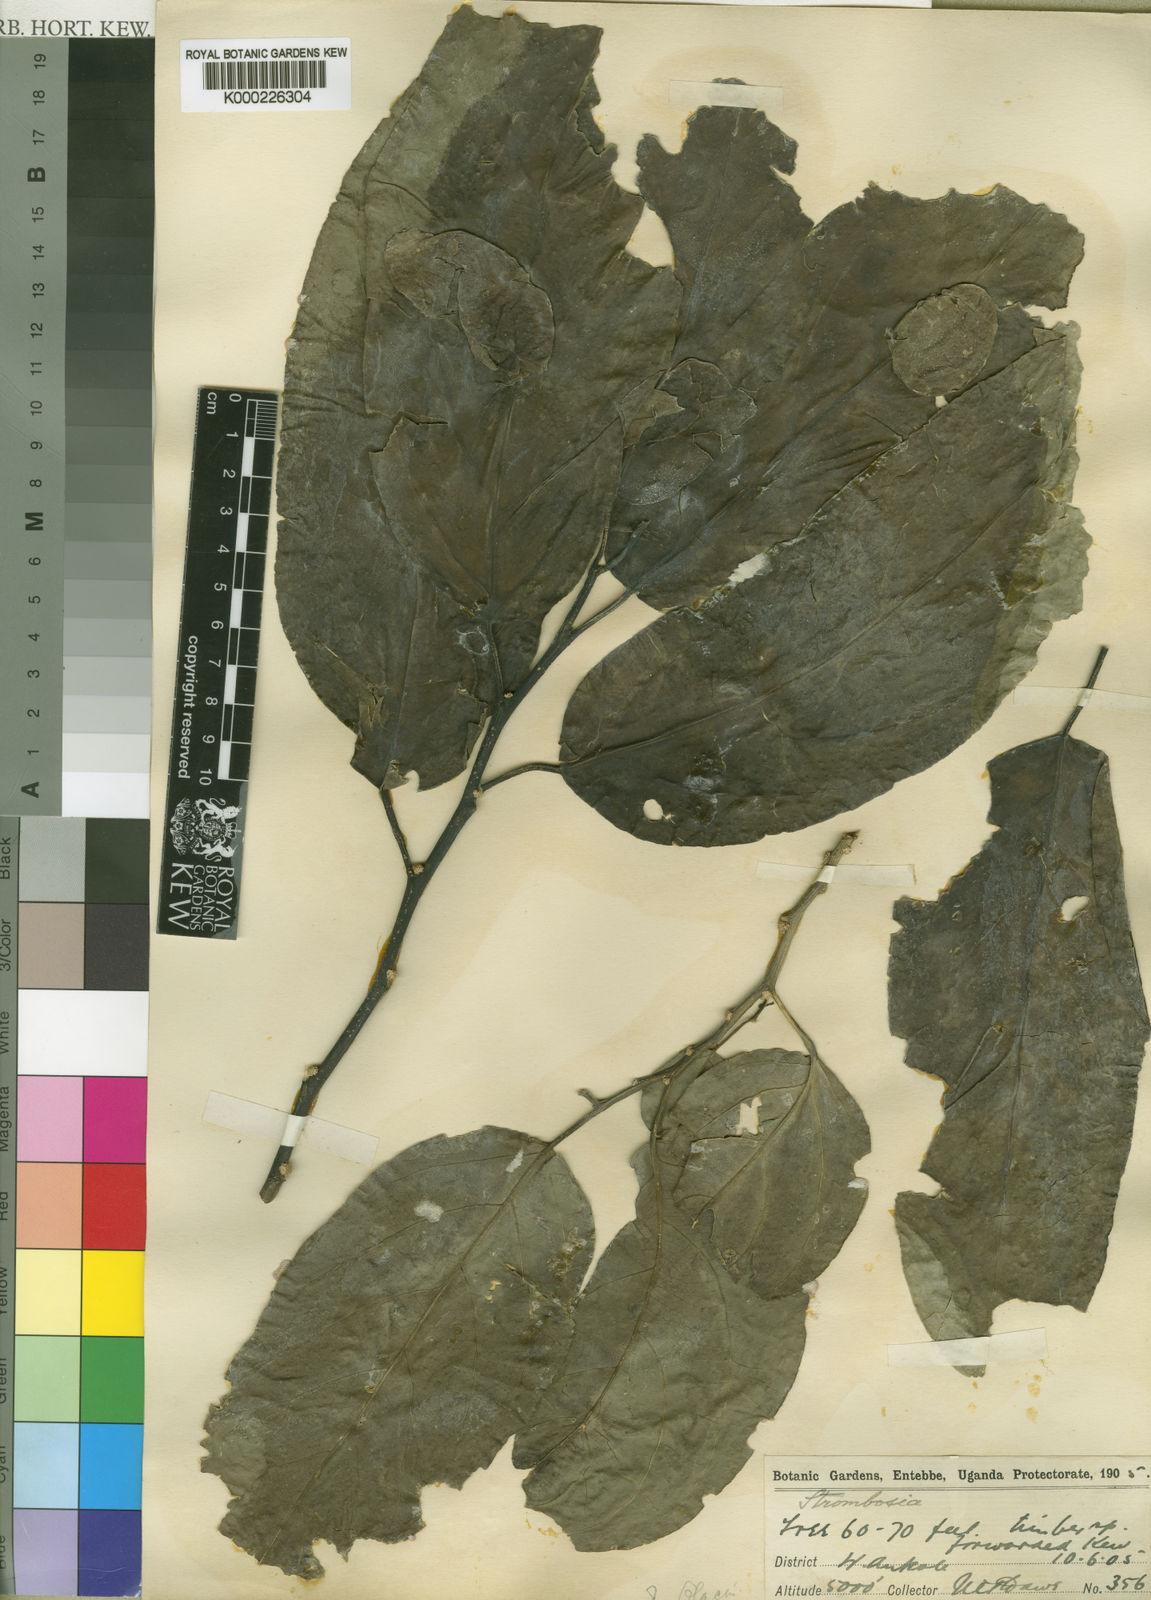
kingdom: Plantae
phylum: Tracheophyta
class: Magnoliopsida
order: Santalales
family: Strombosiaceae
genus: Strombosia
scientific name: Strombosia scheffleri
